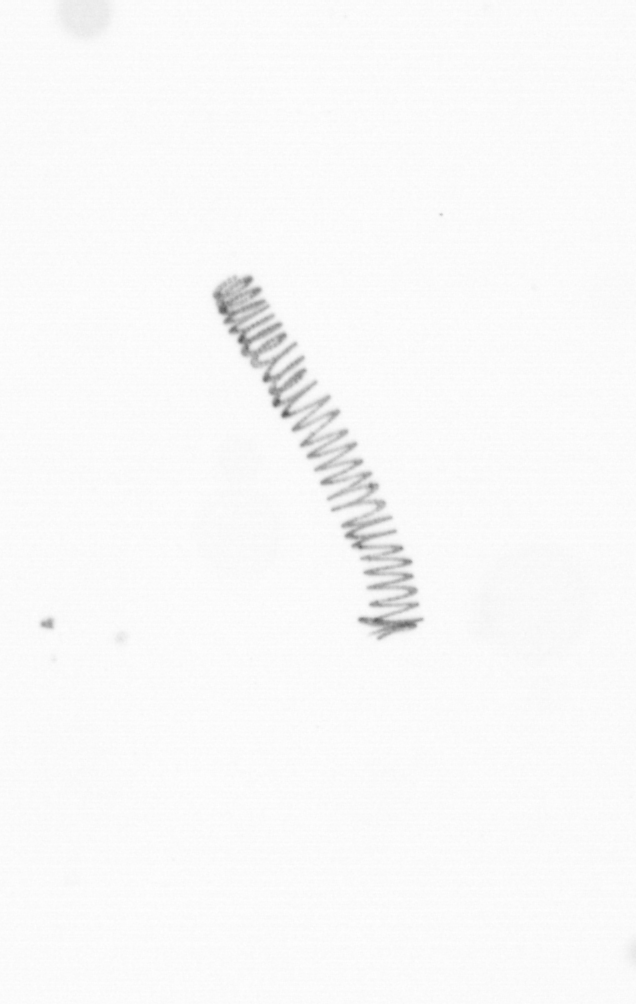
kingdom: Chromista
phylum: Ochrophyta
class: Bacillariophyceae
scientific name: Bacillariophyceae
